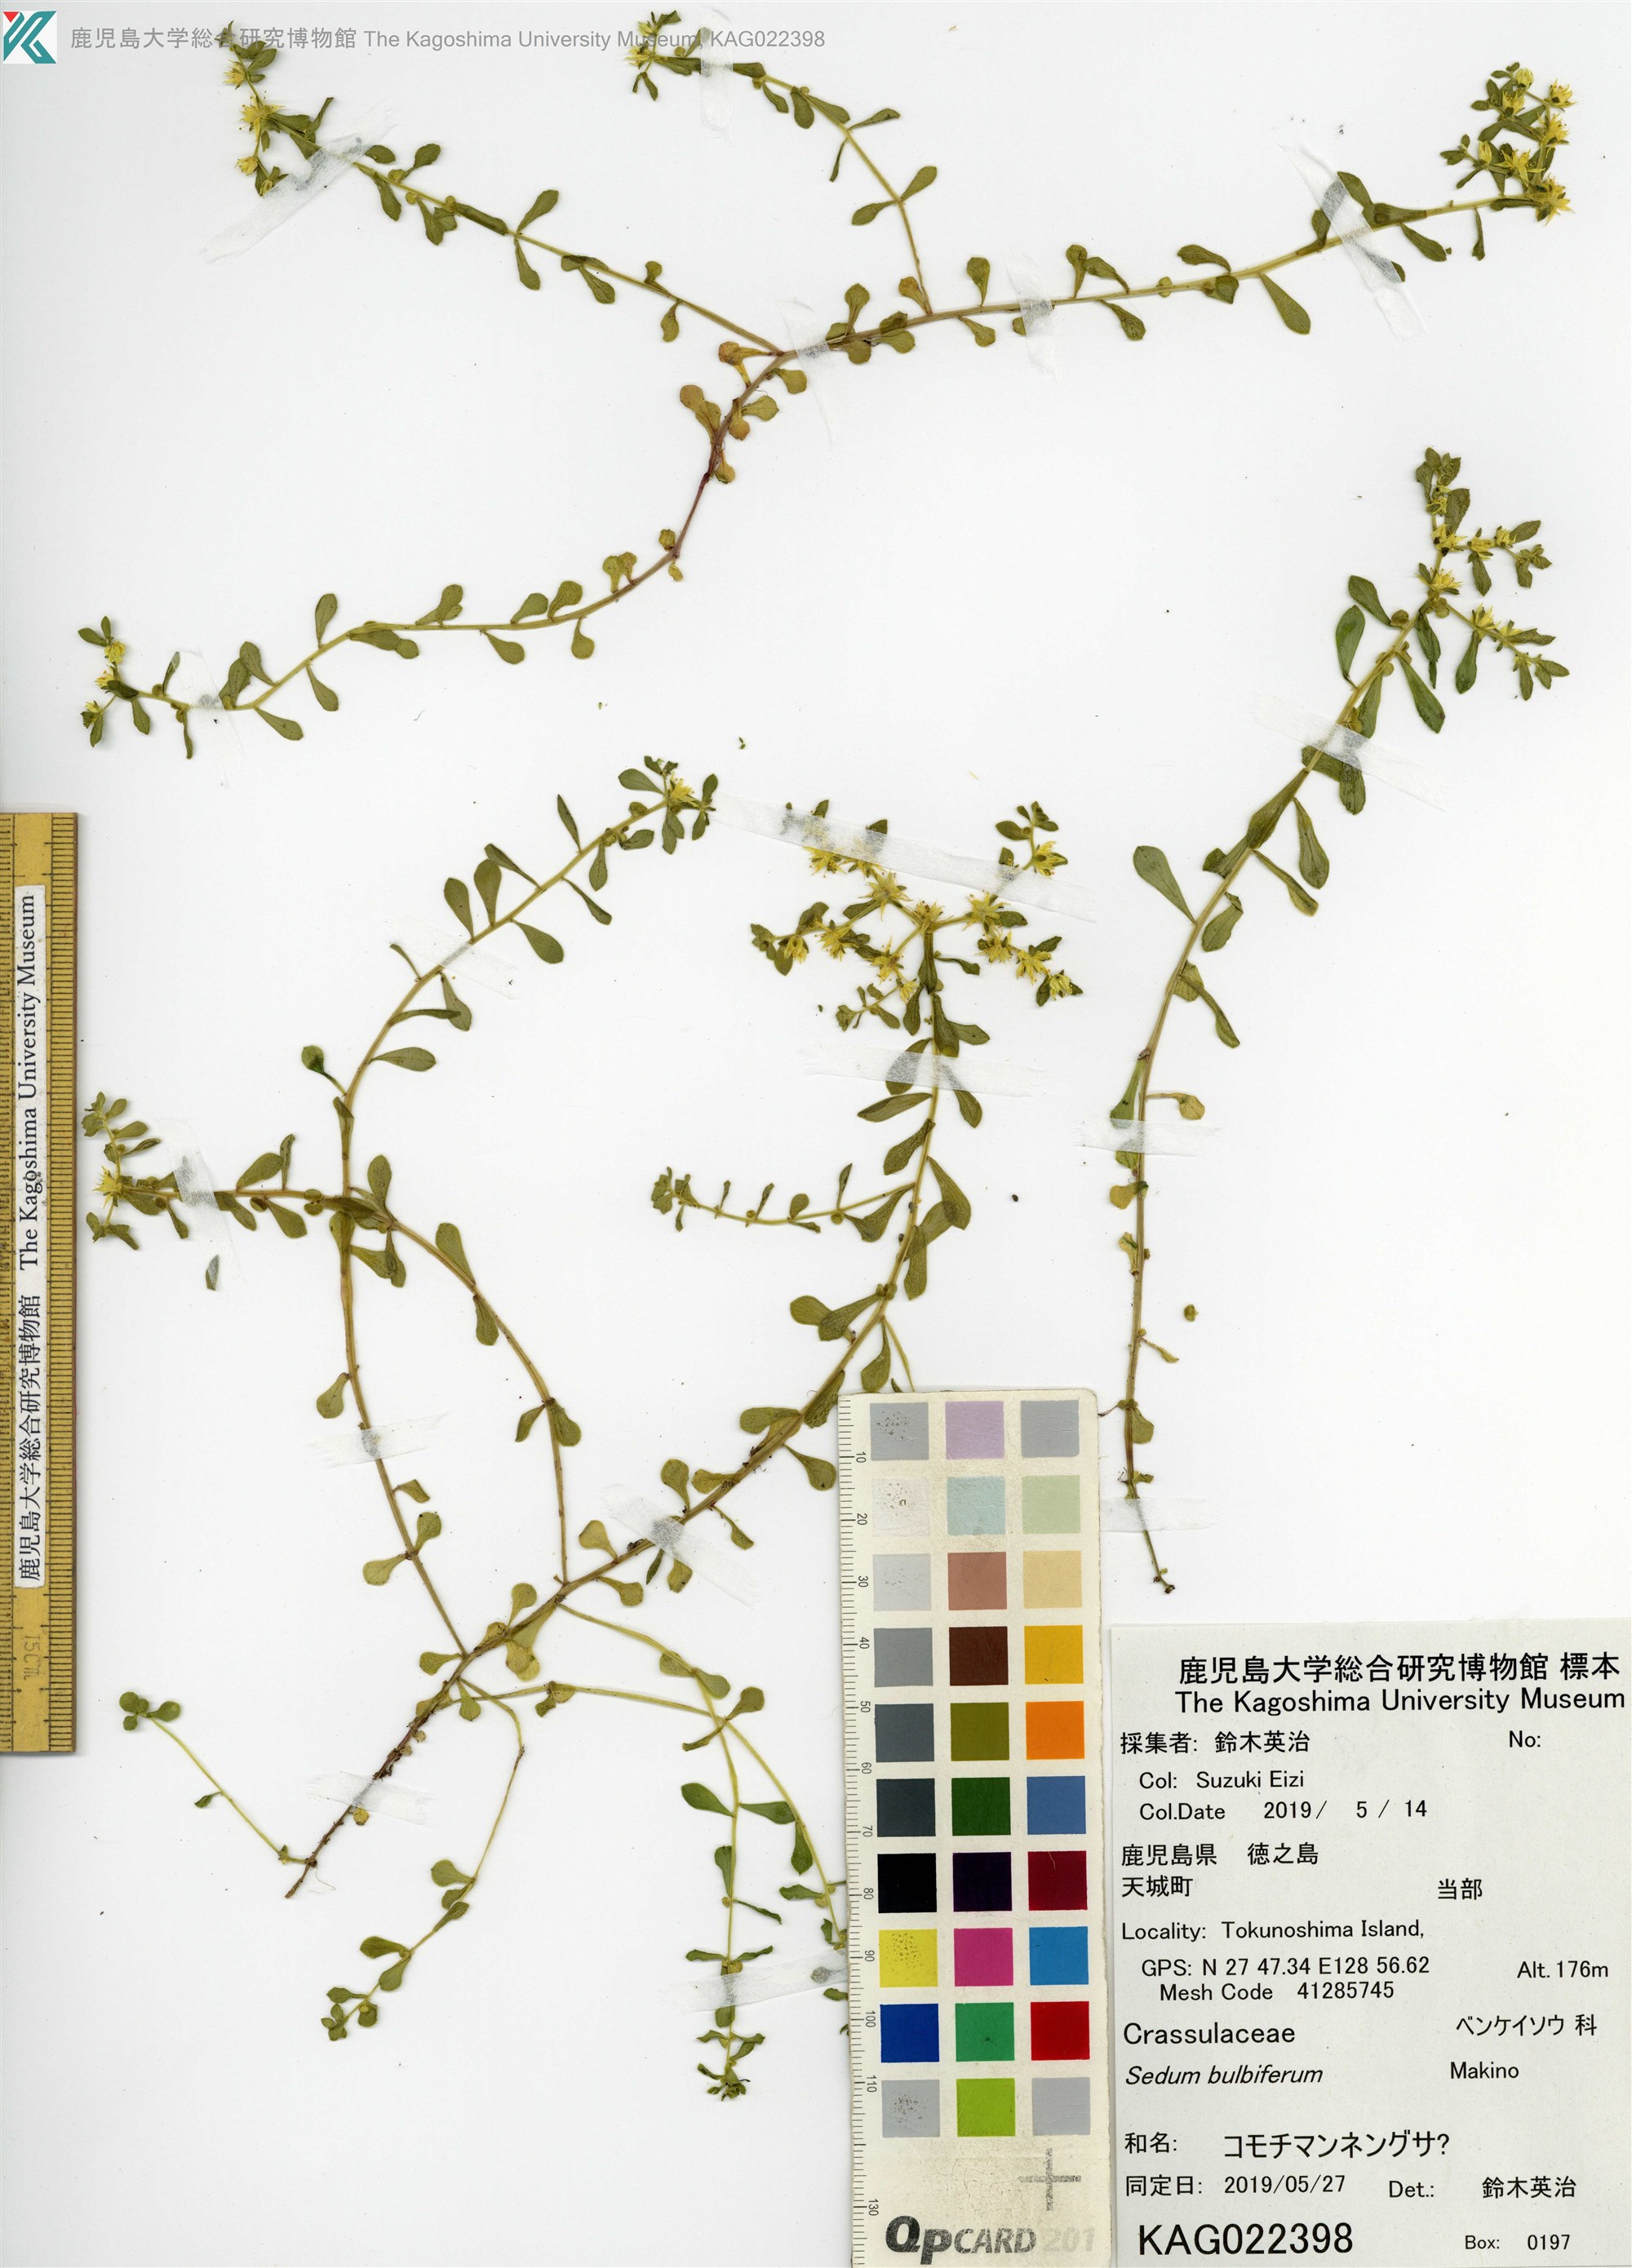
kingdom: Plantae
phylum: Tracheophyta
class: Magnoliopsida
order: Saxifragales
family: Crassulaceae
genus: Sedum
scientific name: Sedum bulbiferum
